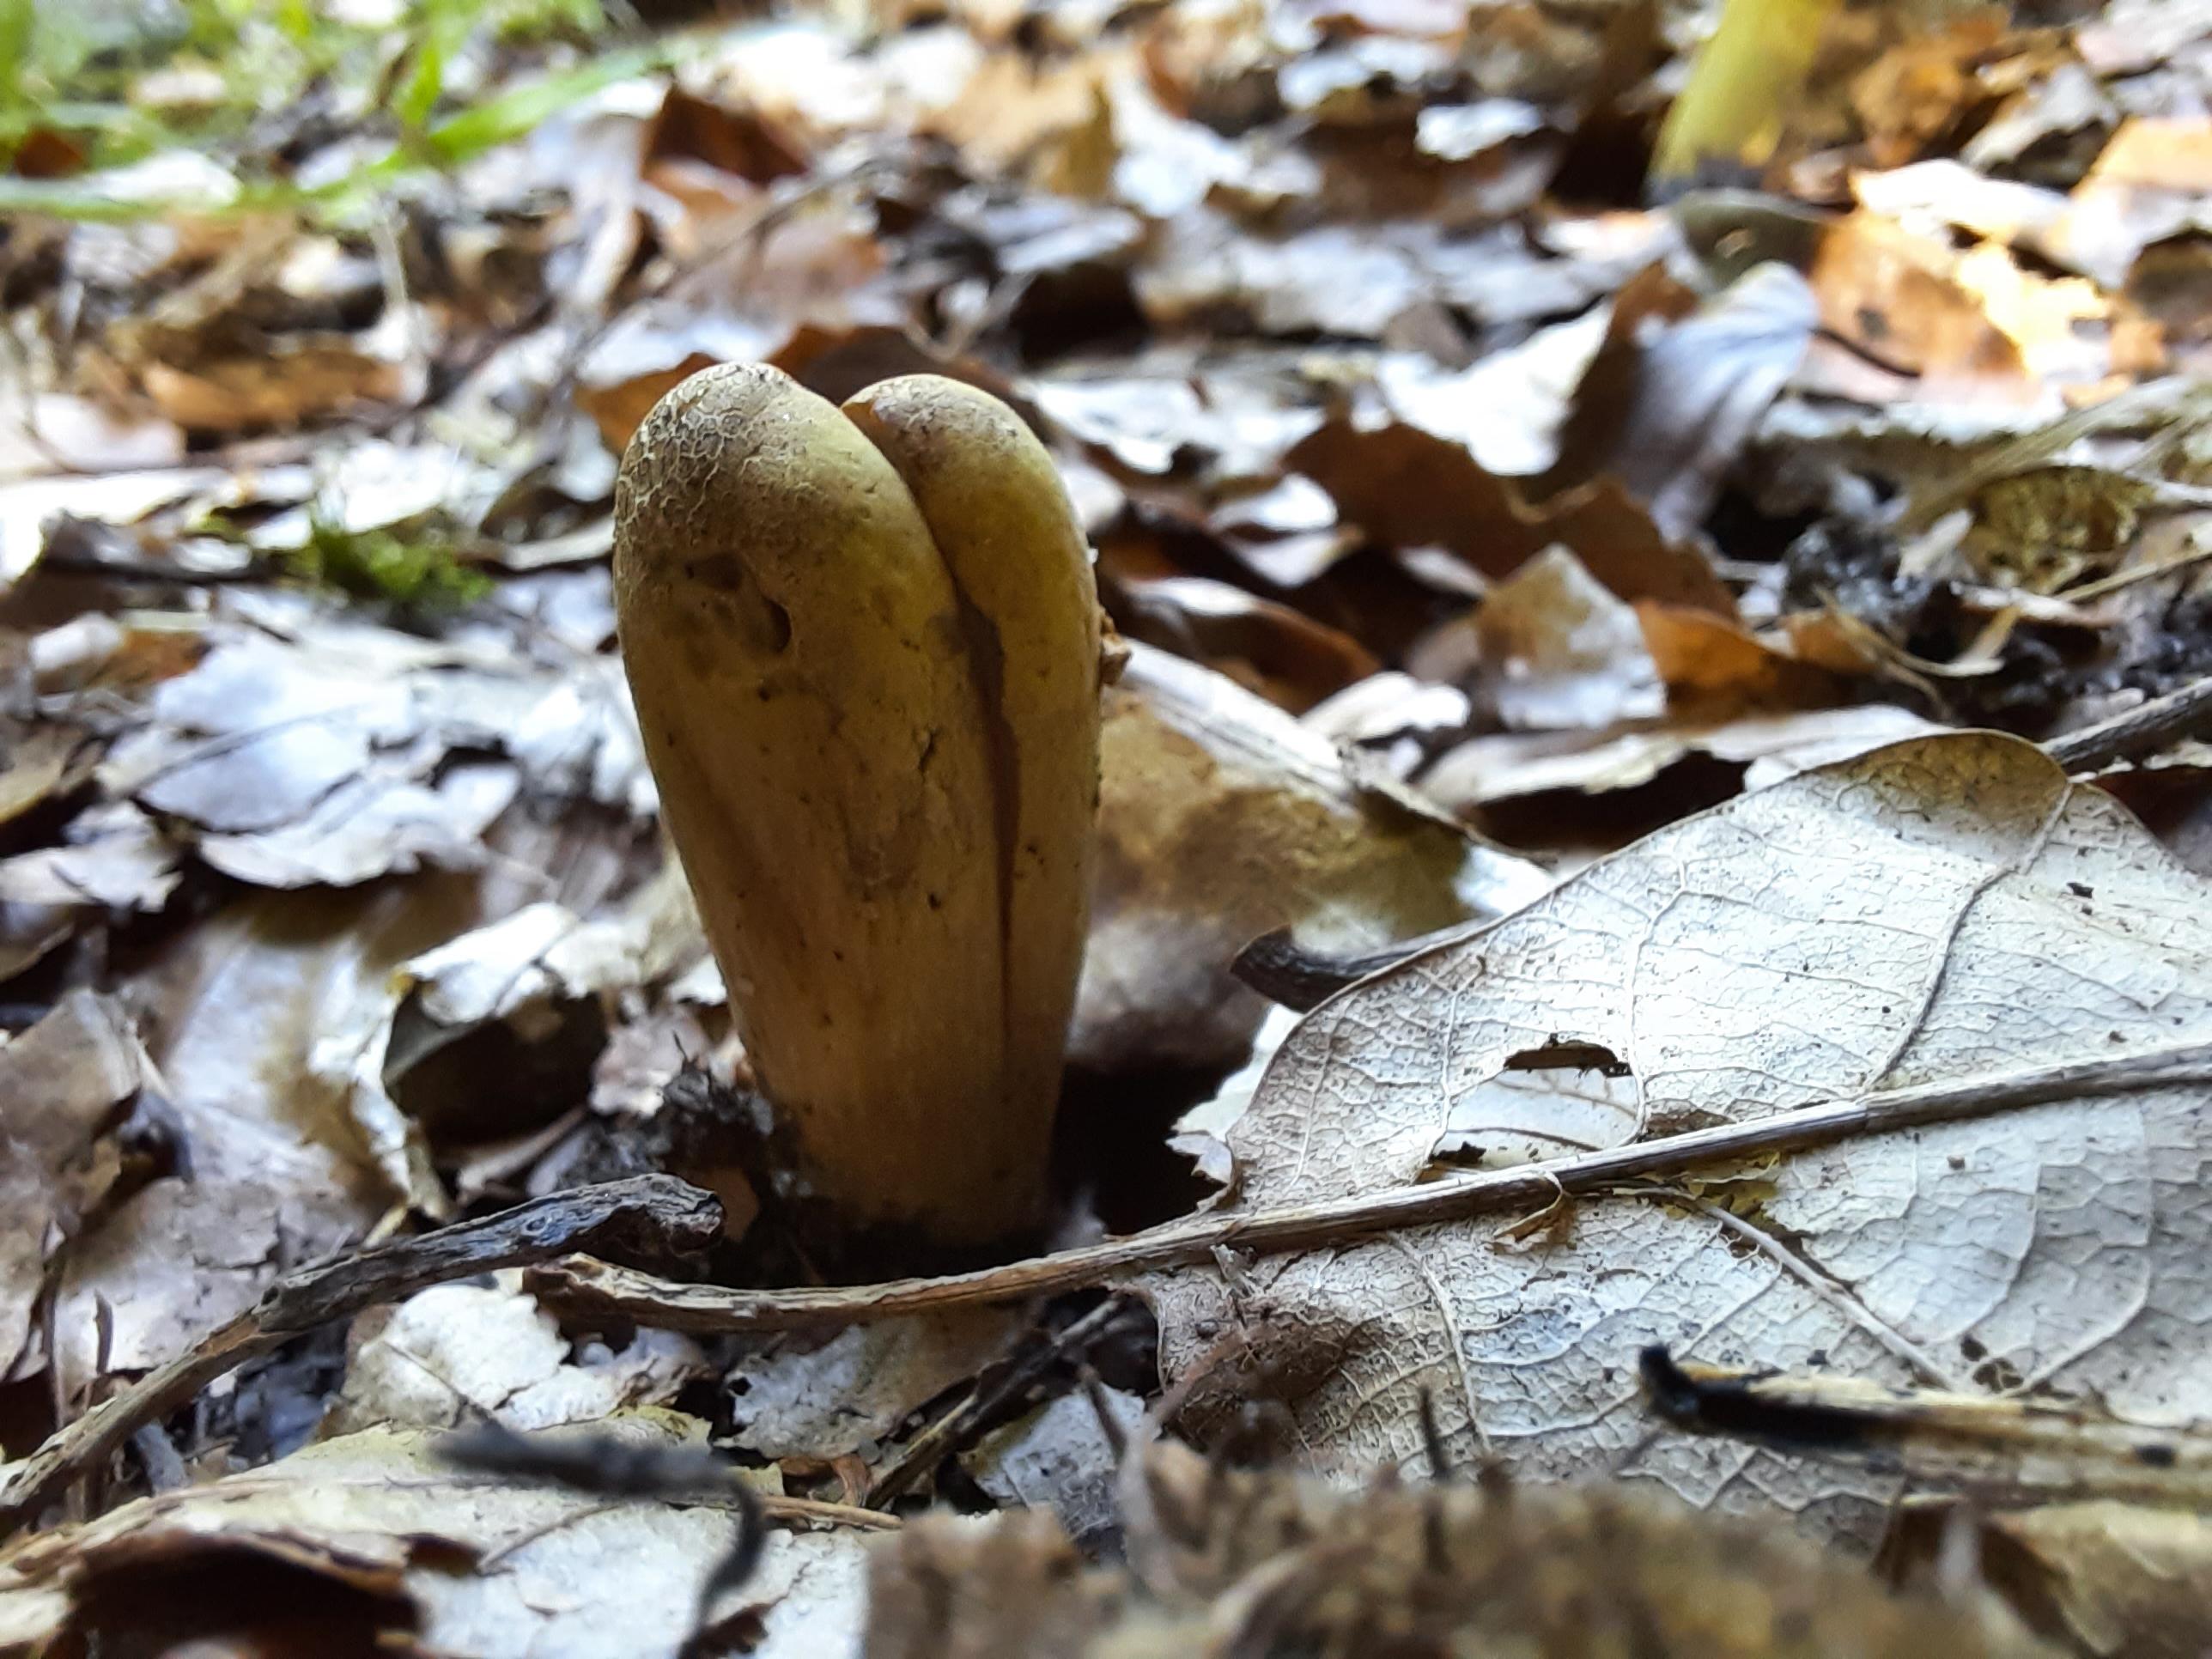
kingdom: Fungi
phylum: Basidiomycota
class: Agaricomycetes
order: Gomphales
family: Clavariadelphaceae
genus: Clavariadelphus
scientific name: Clavariadelphus pistillaris
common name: herkules-kæmpekølle
